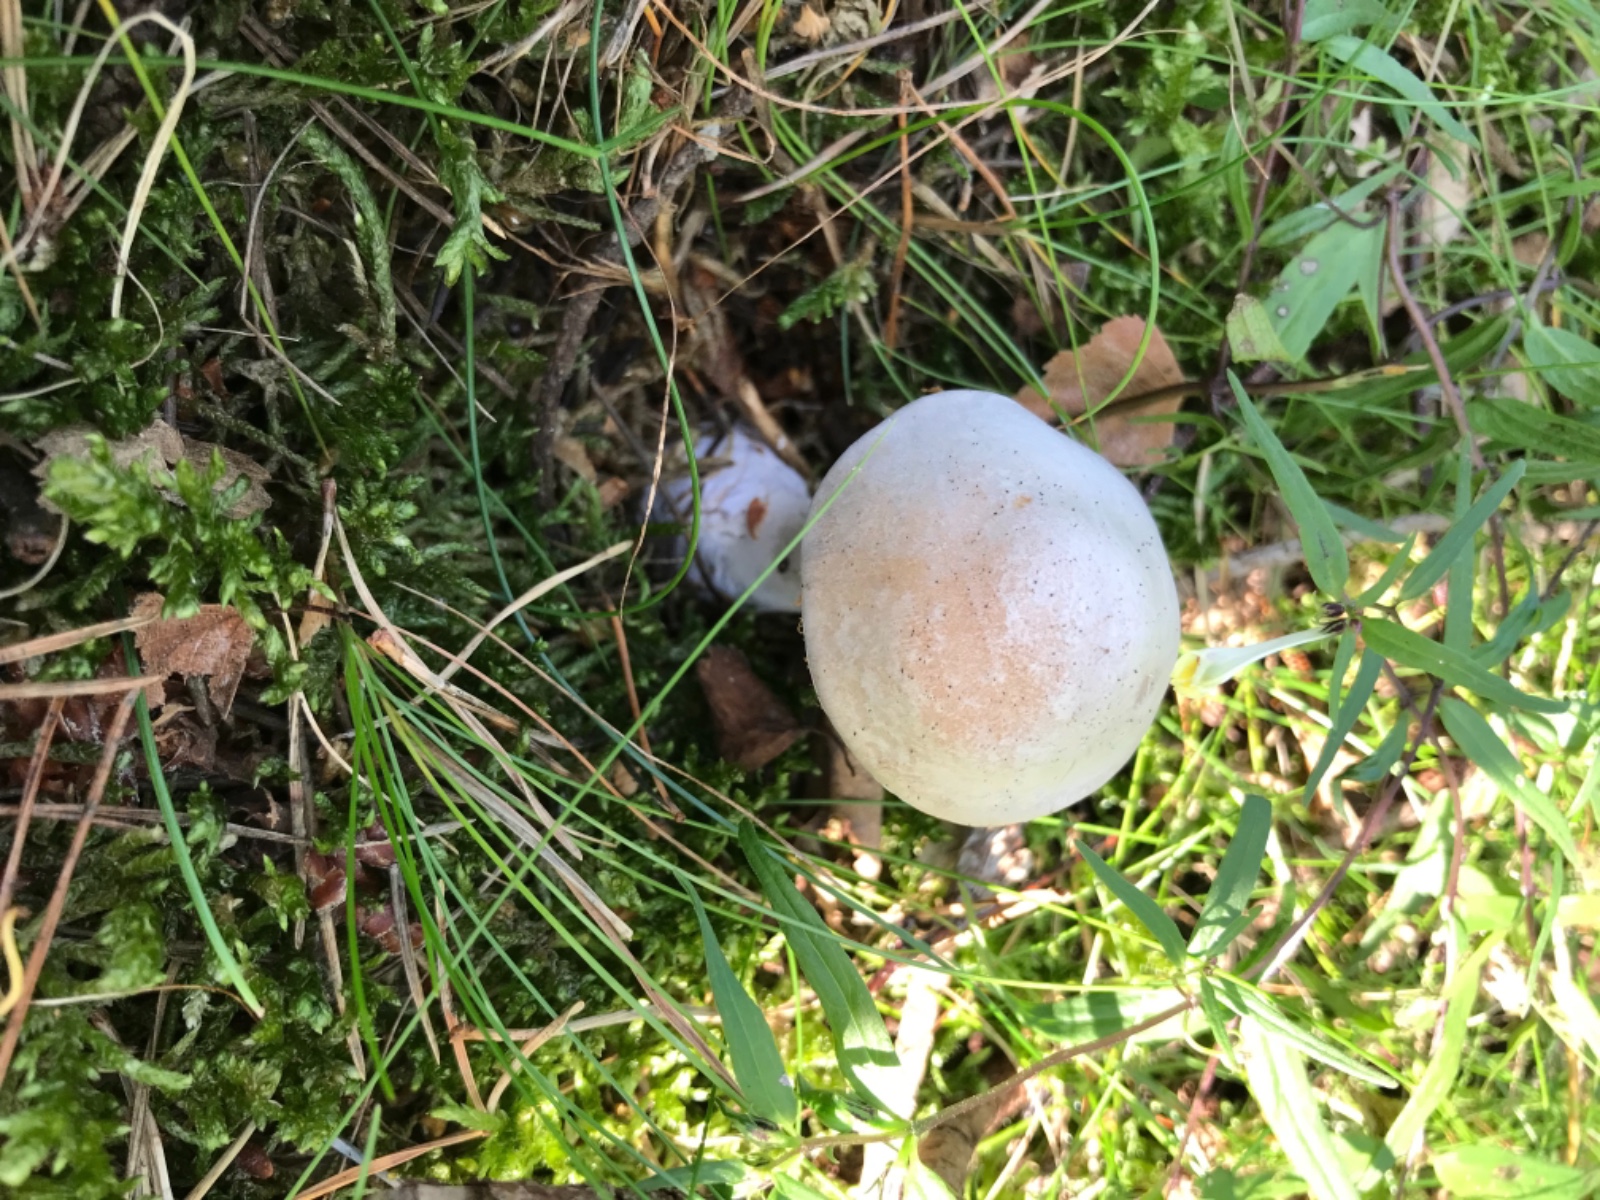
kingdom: Fungi
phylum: Basidiomycota
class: Agaricomycetes
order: Agaricales
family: Cortinariaceae
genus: Cortinarius
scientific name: Cortinarius quarciticus
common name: kvarts-slørhat
